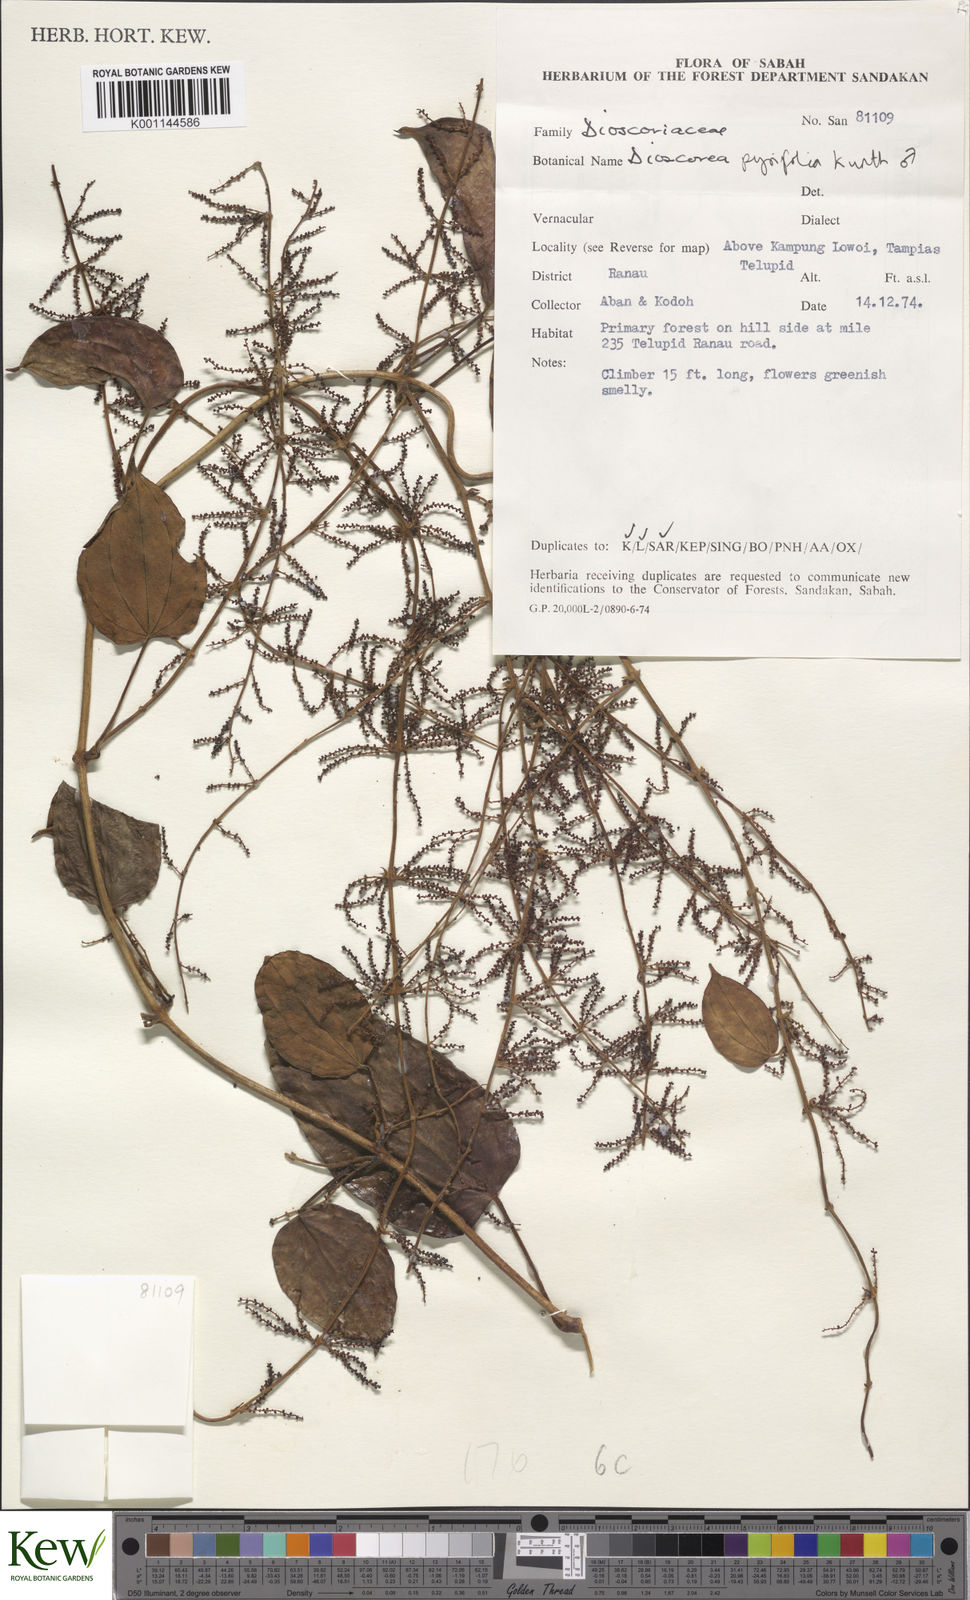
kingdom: Plantae
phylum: Tracheophyta
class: Liliopsida
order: Dioscoreales
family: Dioscoreaceae
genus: Dioscorea
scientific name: Dioscorea pyrifolia
